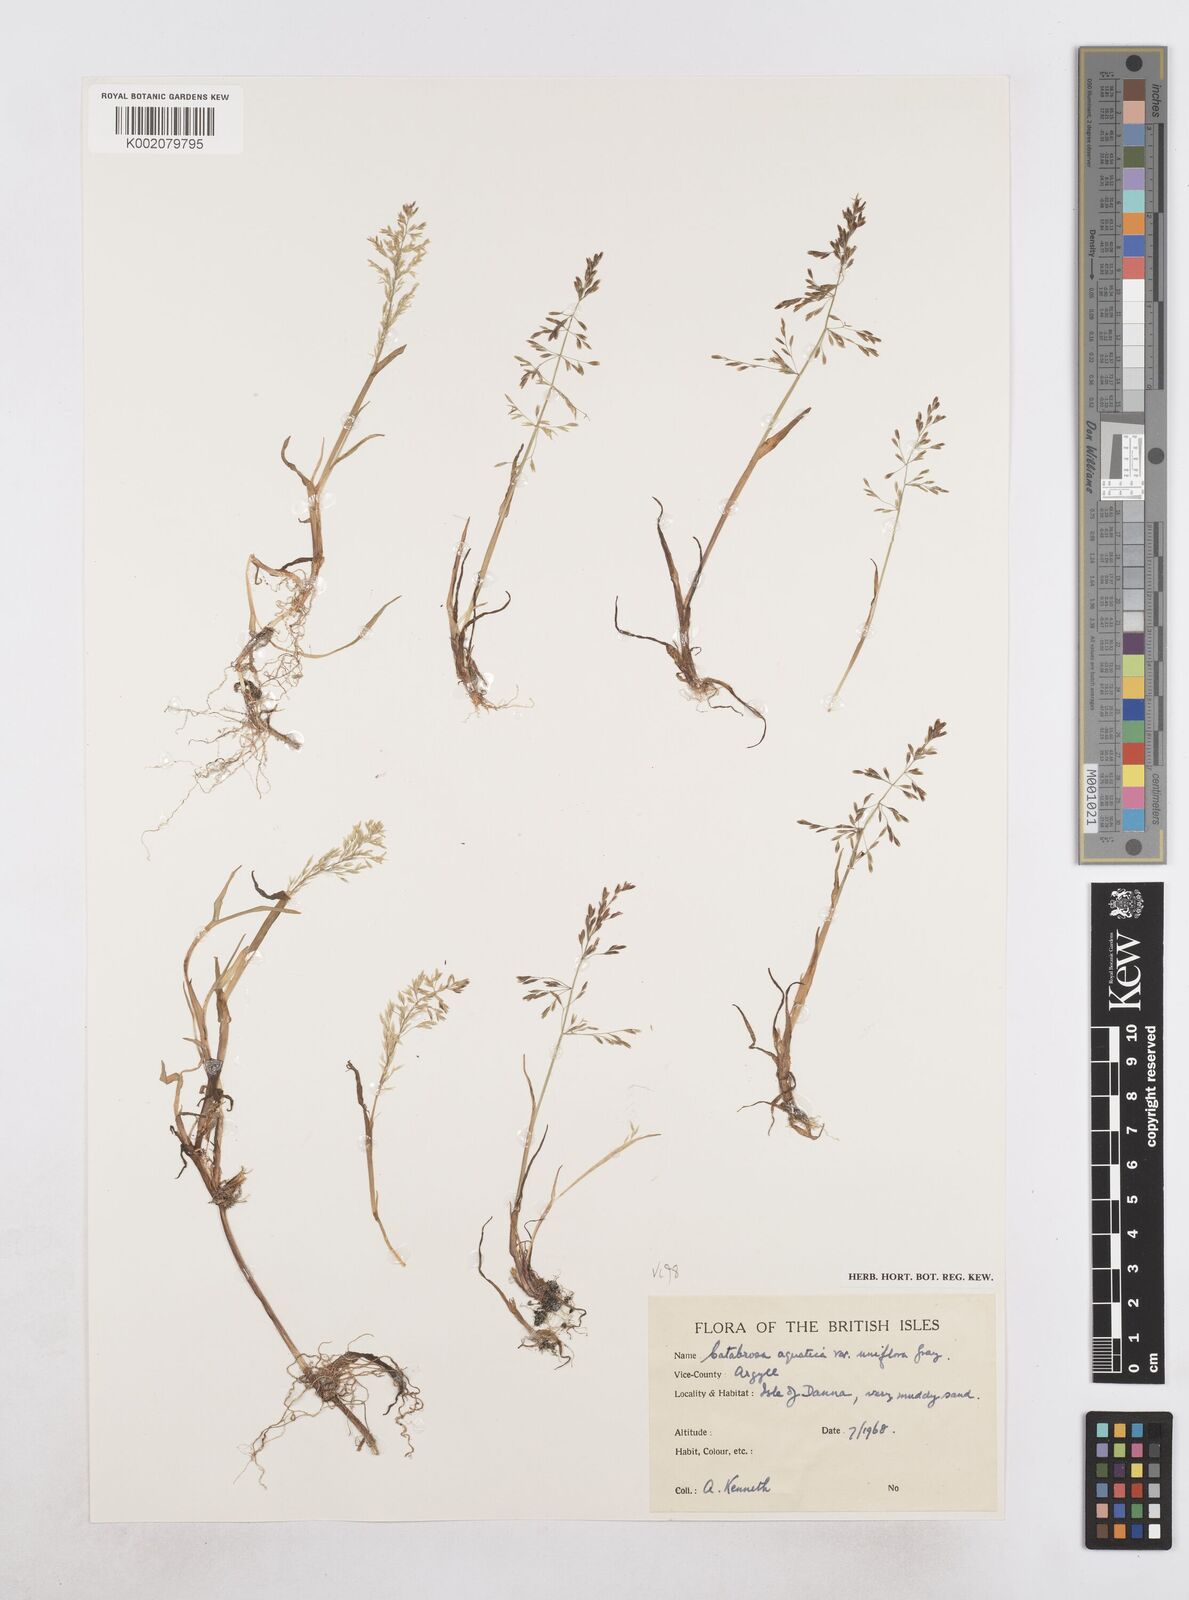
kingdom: Plantae
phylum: Tracheophyta
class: Liliopsida
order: Poales
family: Poaceae
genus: Catabrosa
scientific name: Catabrosa aquatica
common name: Whorl-grass
